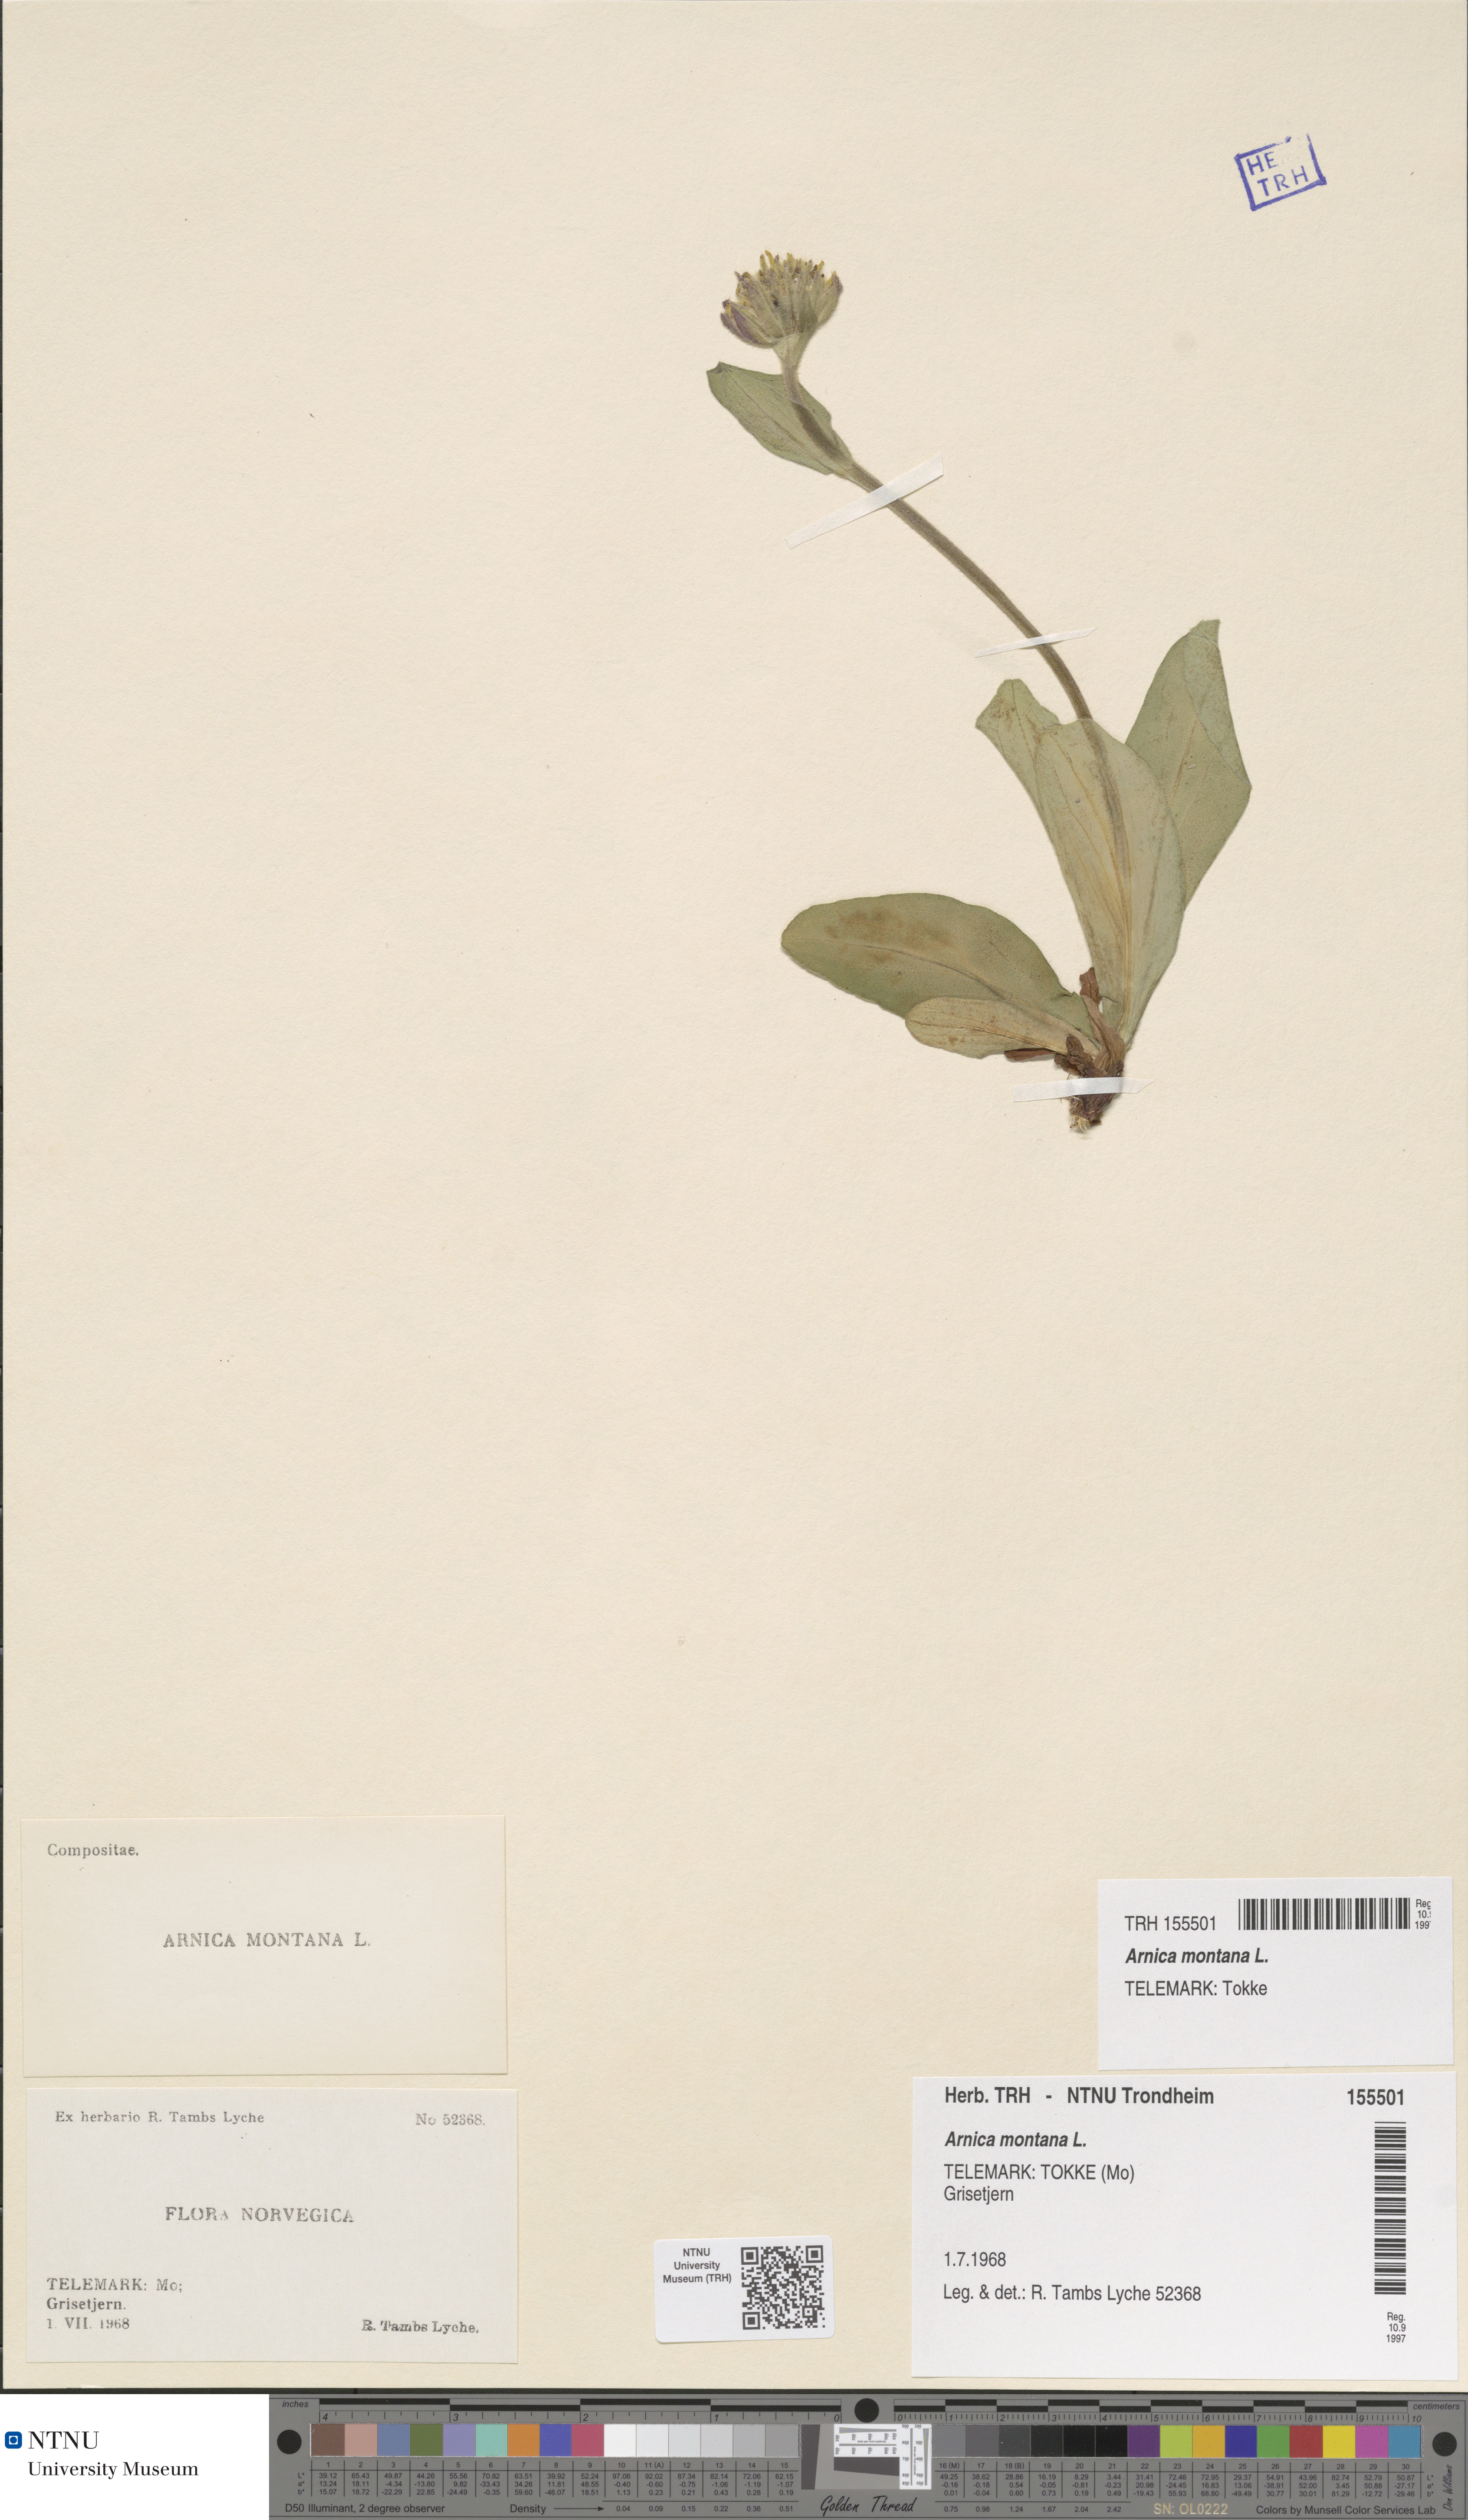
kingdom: Plantae
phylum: Tracheophyta
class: Magnoliopsida
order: Asterales
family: Asteraceae
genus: Arnica
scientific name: Arnica montana
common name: Leopard's bane
